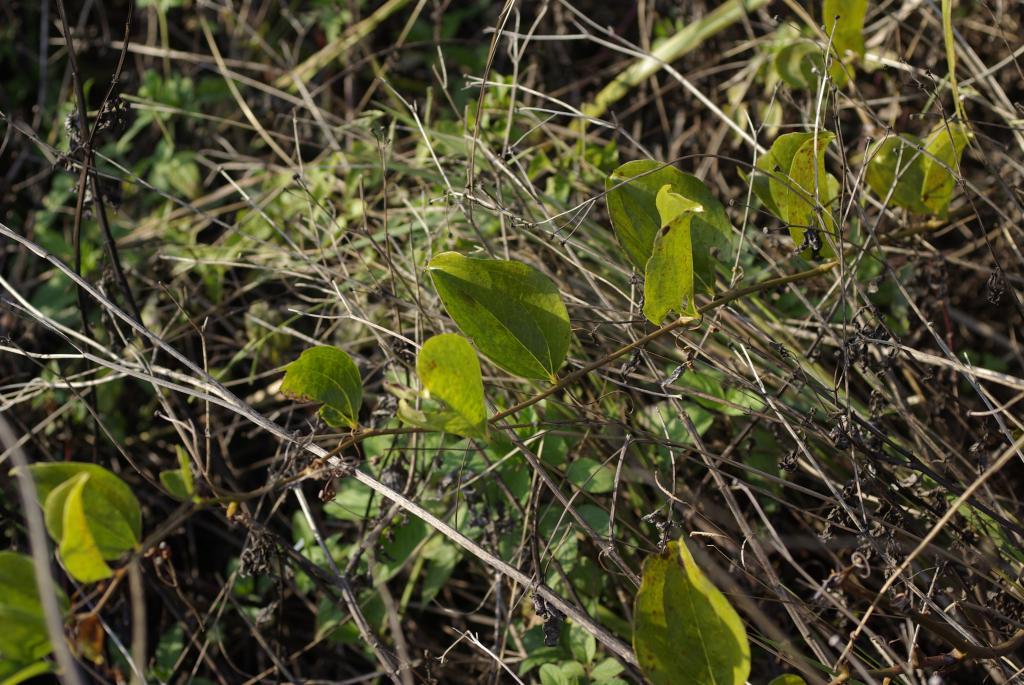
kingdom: Plantae
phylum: Tracheophyta
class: Liliopsida
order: Liliales
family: Smilacaceae
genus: Smilax
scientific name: Smilax china
